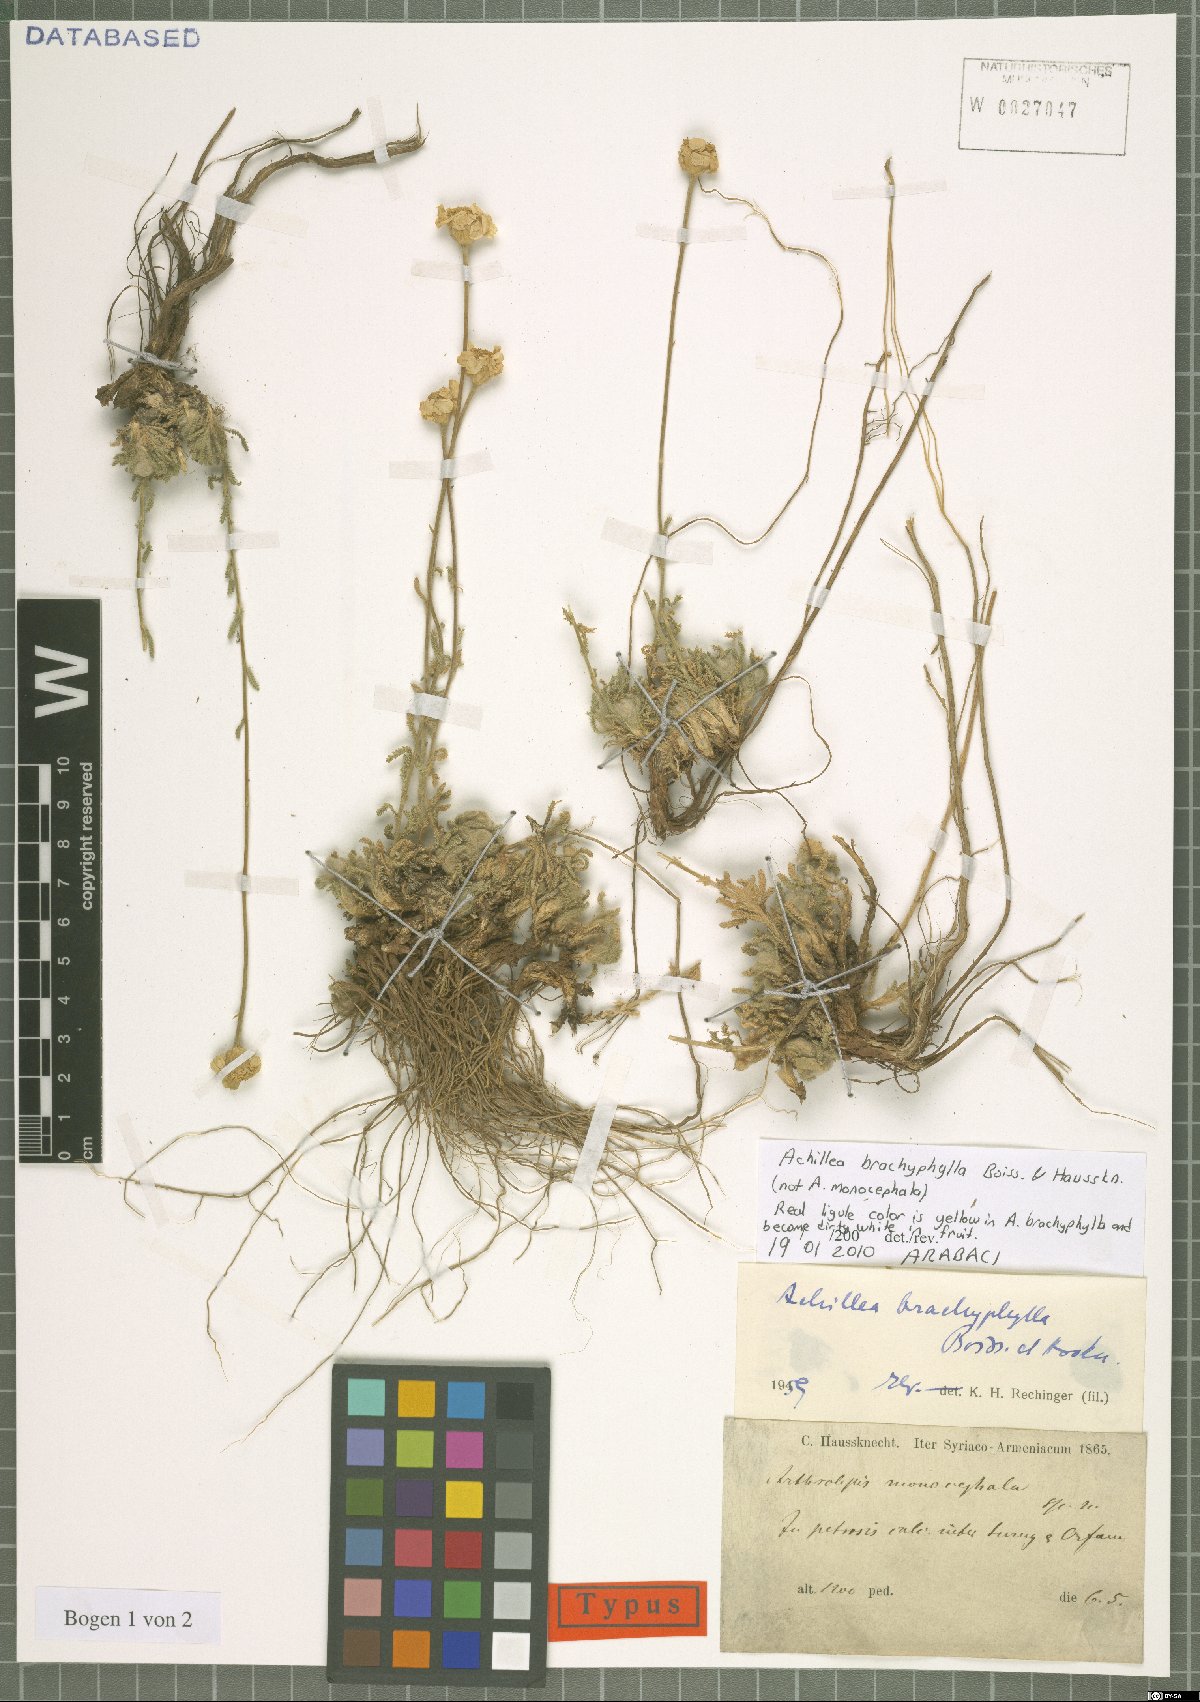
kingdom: Plantae
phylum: Tracheophyta
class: Magnoliopsida
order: Asterales
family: Asteraceae
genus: Achillea
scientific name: Achillea brachyphylla
